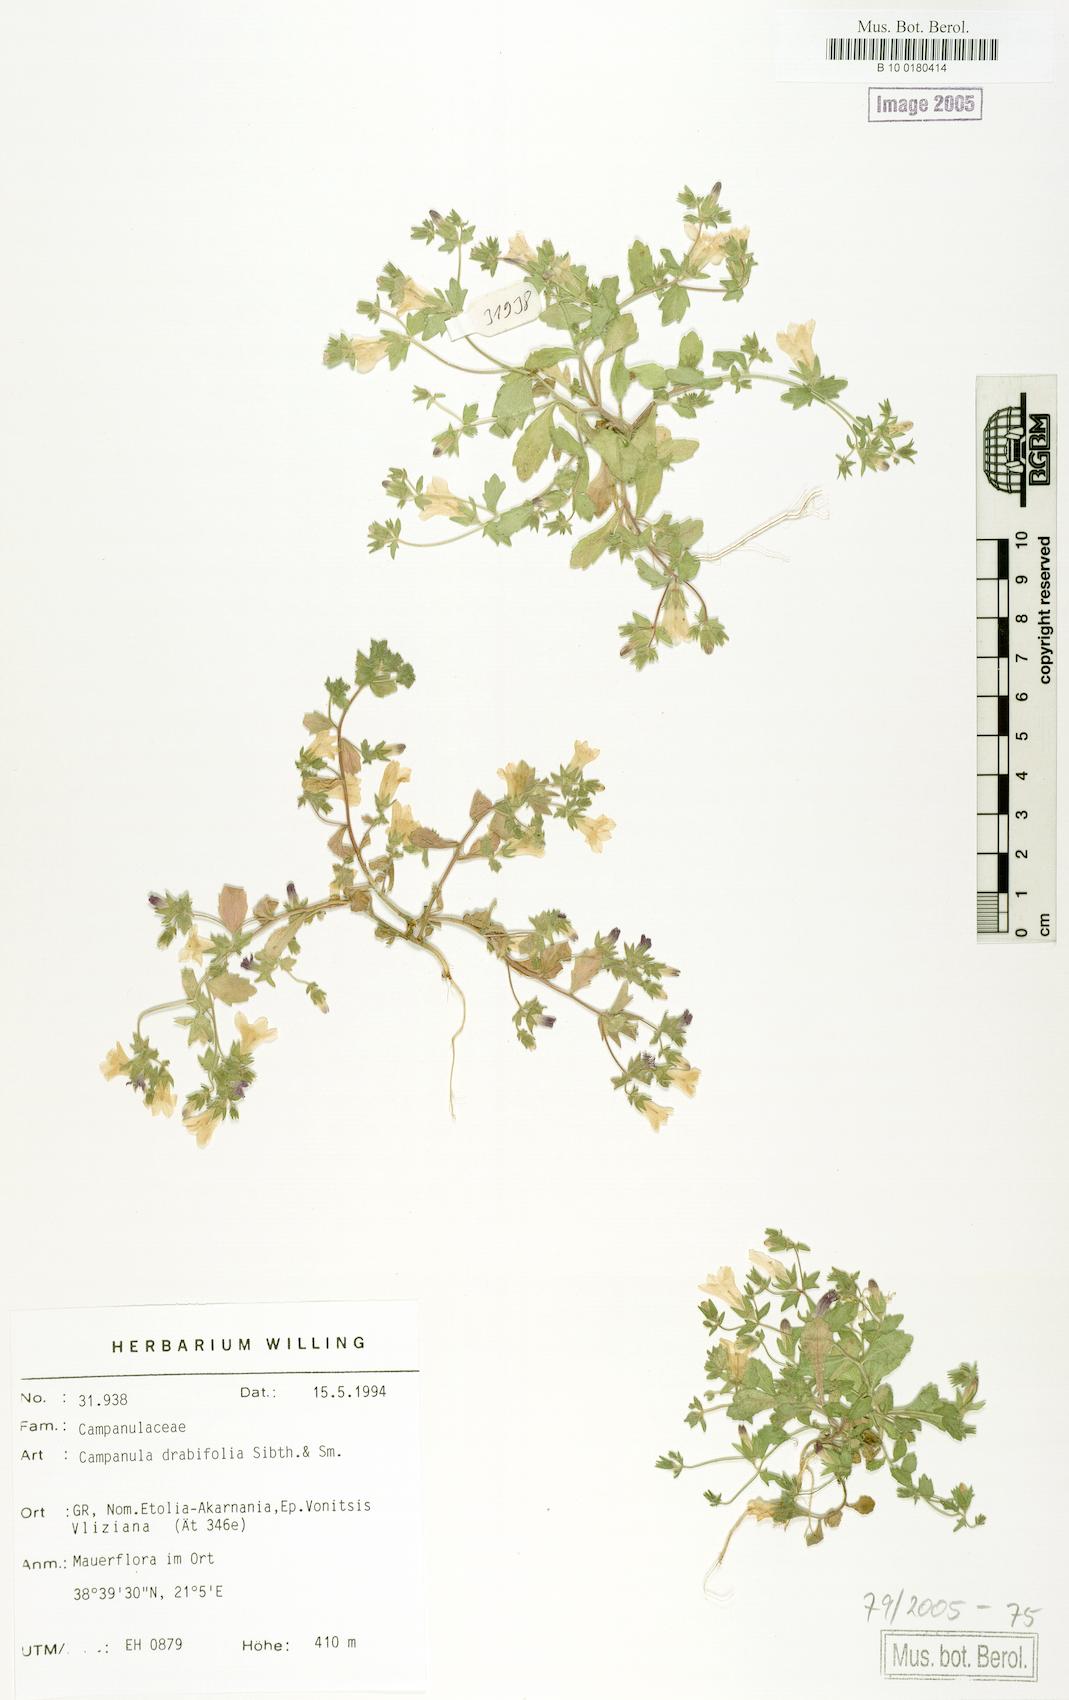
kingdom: Plantae
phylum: Tracheophyta
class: Magnoliopsida
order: Asterales
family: Campanulaceae
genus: Campanula
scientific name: Campanula drabifolia
